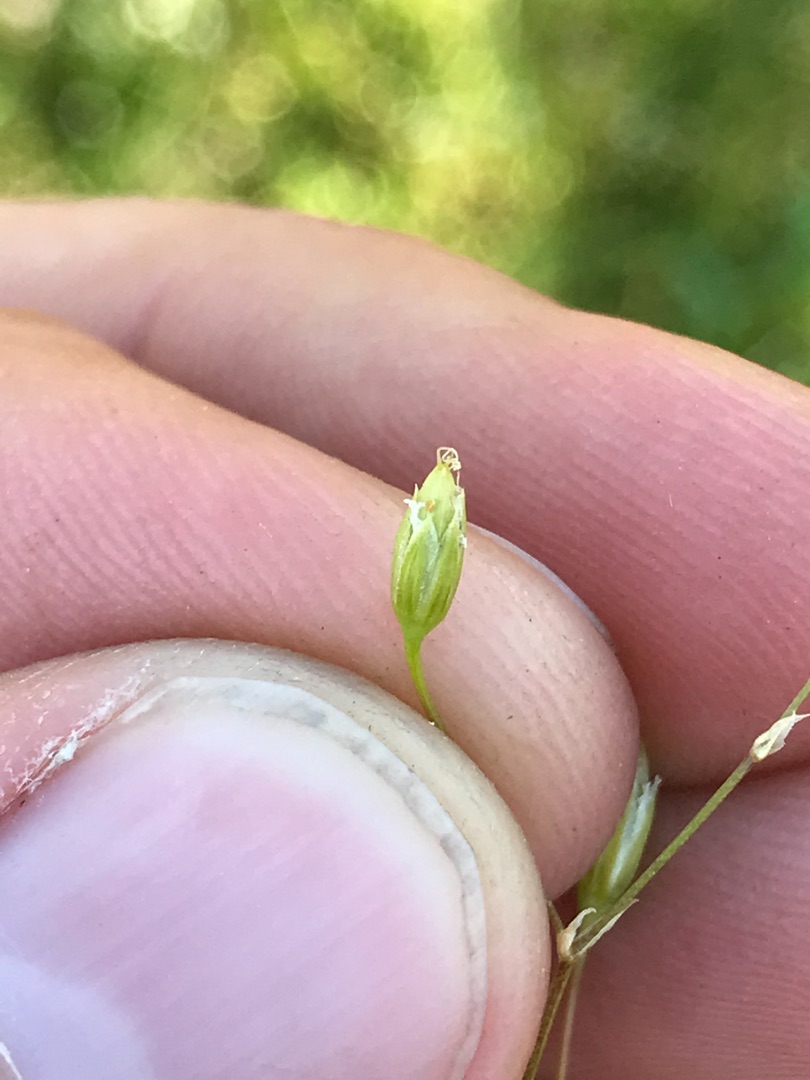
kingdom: Plantae
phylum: Tracheophyta
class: Magnoliopsida
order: Caryophyllales
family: Caryophyllaceae
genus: Stellaria
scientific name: Stellaria graminea
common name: Græsbladet fladstjerne
